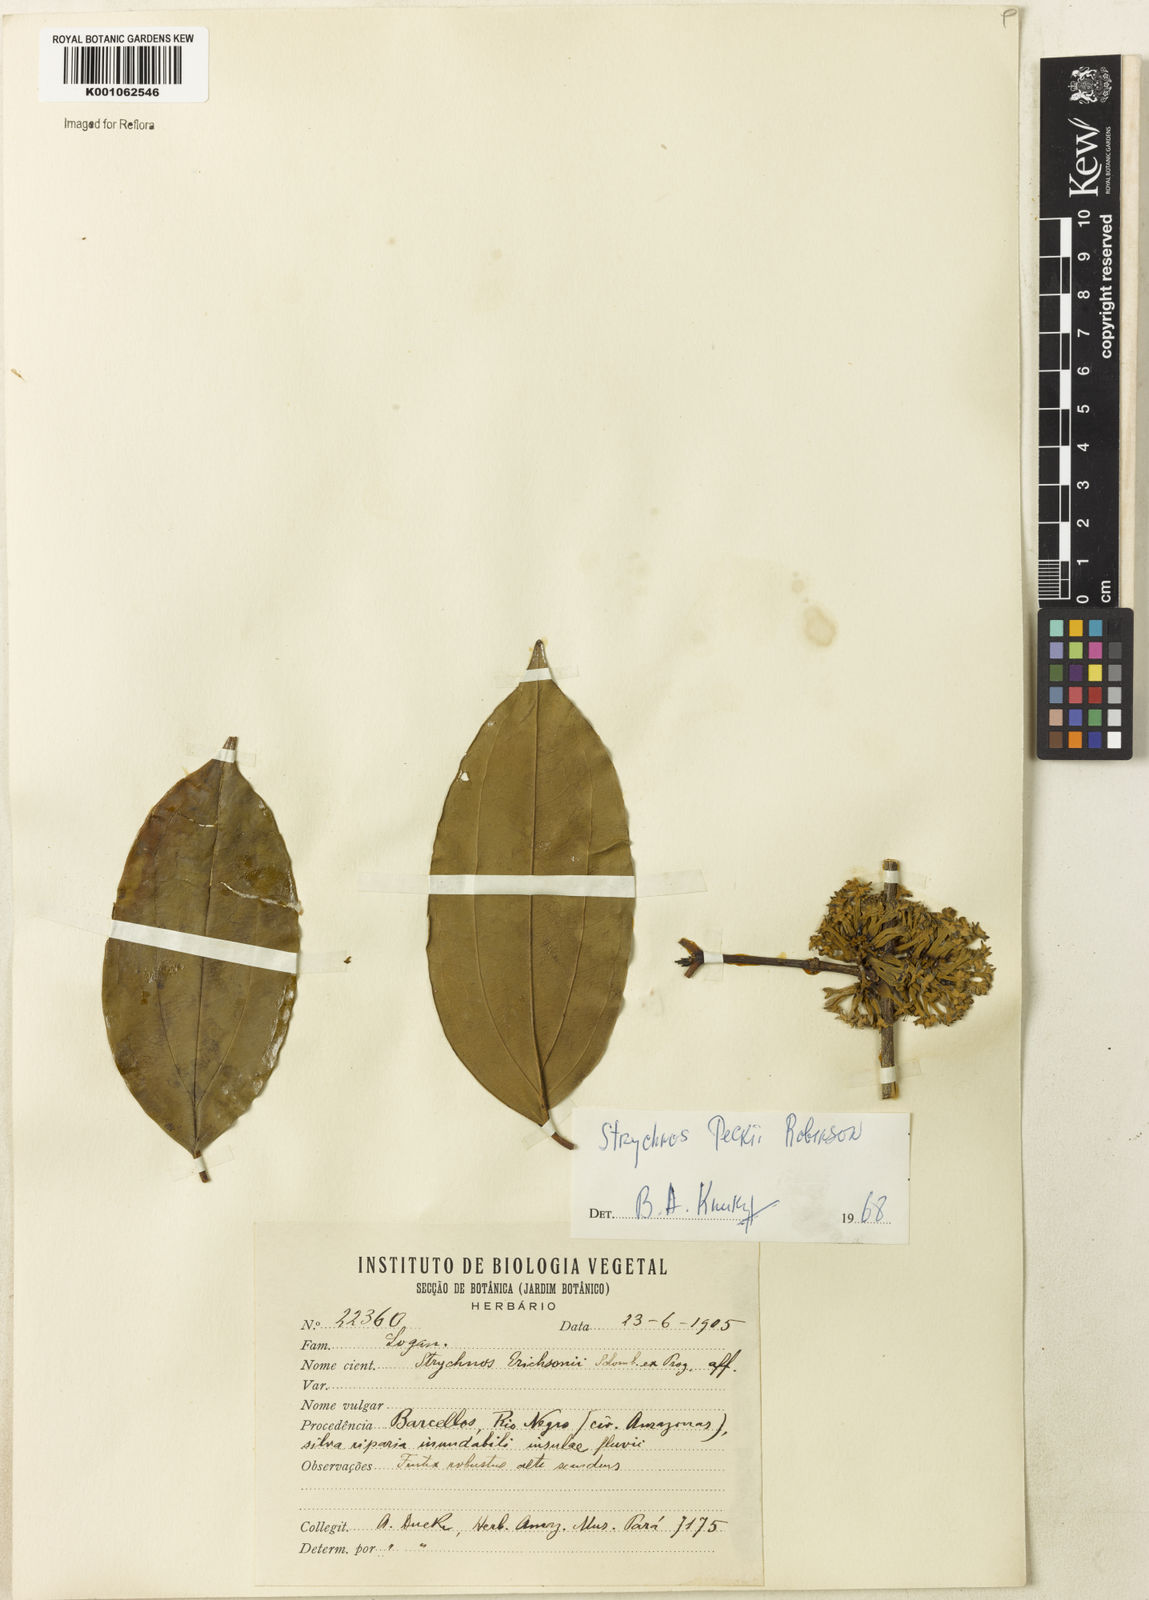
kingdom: Plantae
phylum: Tracheophyta
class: Magnoliopsida
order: Gentianales
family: Loganiaceae
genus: Strychnos
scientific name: Strychnos peckii
